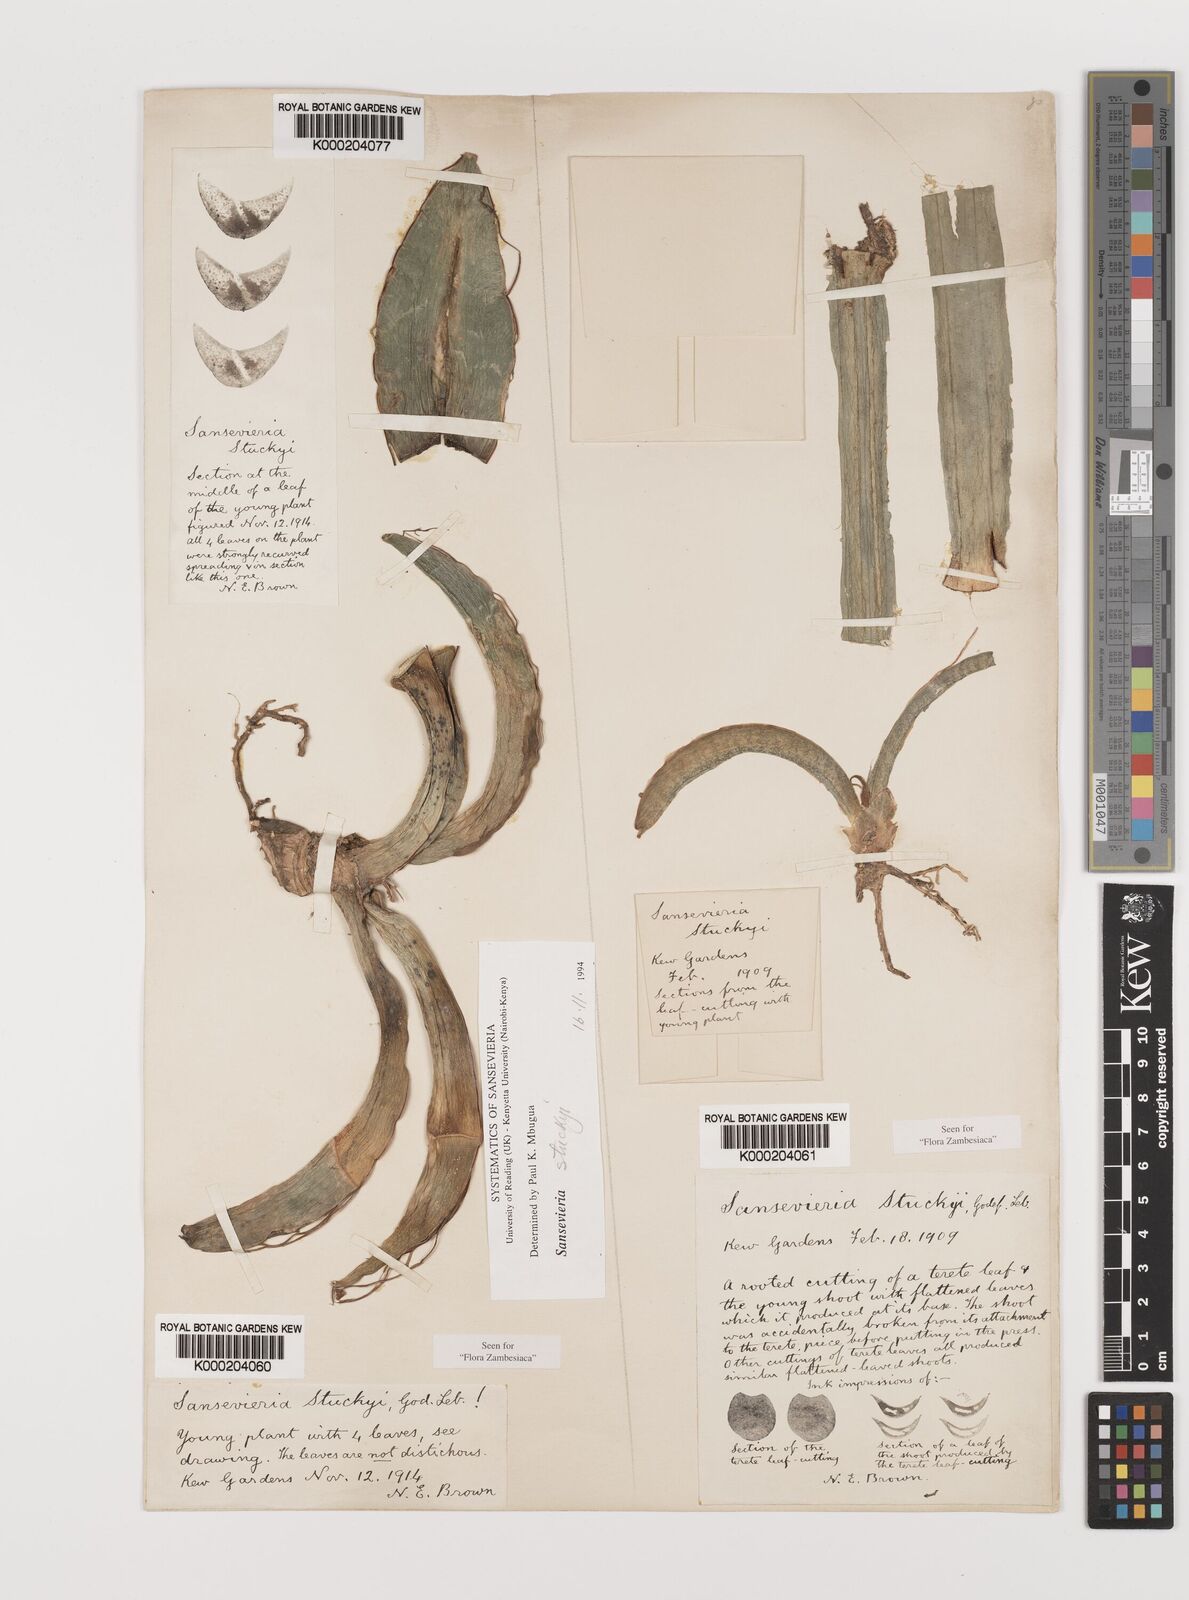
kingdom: Plantae
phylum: Tracheophyta
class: Liliopsida
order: Asparagales
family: Asparagaceae
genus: Dracaena
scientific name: Dracaena stuckyi
